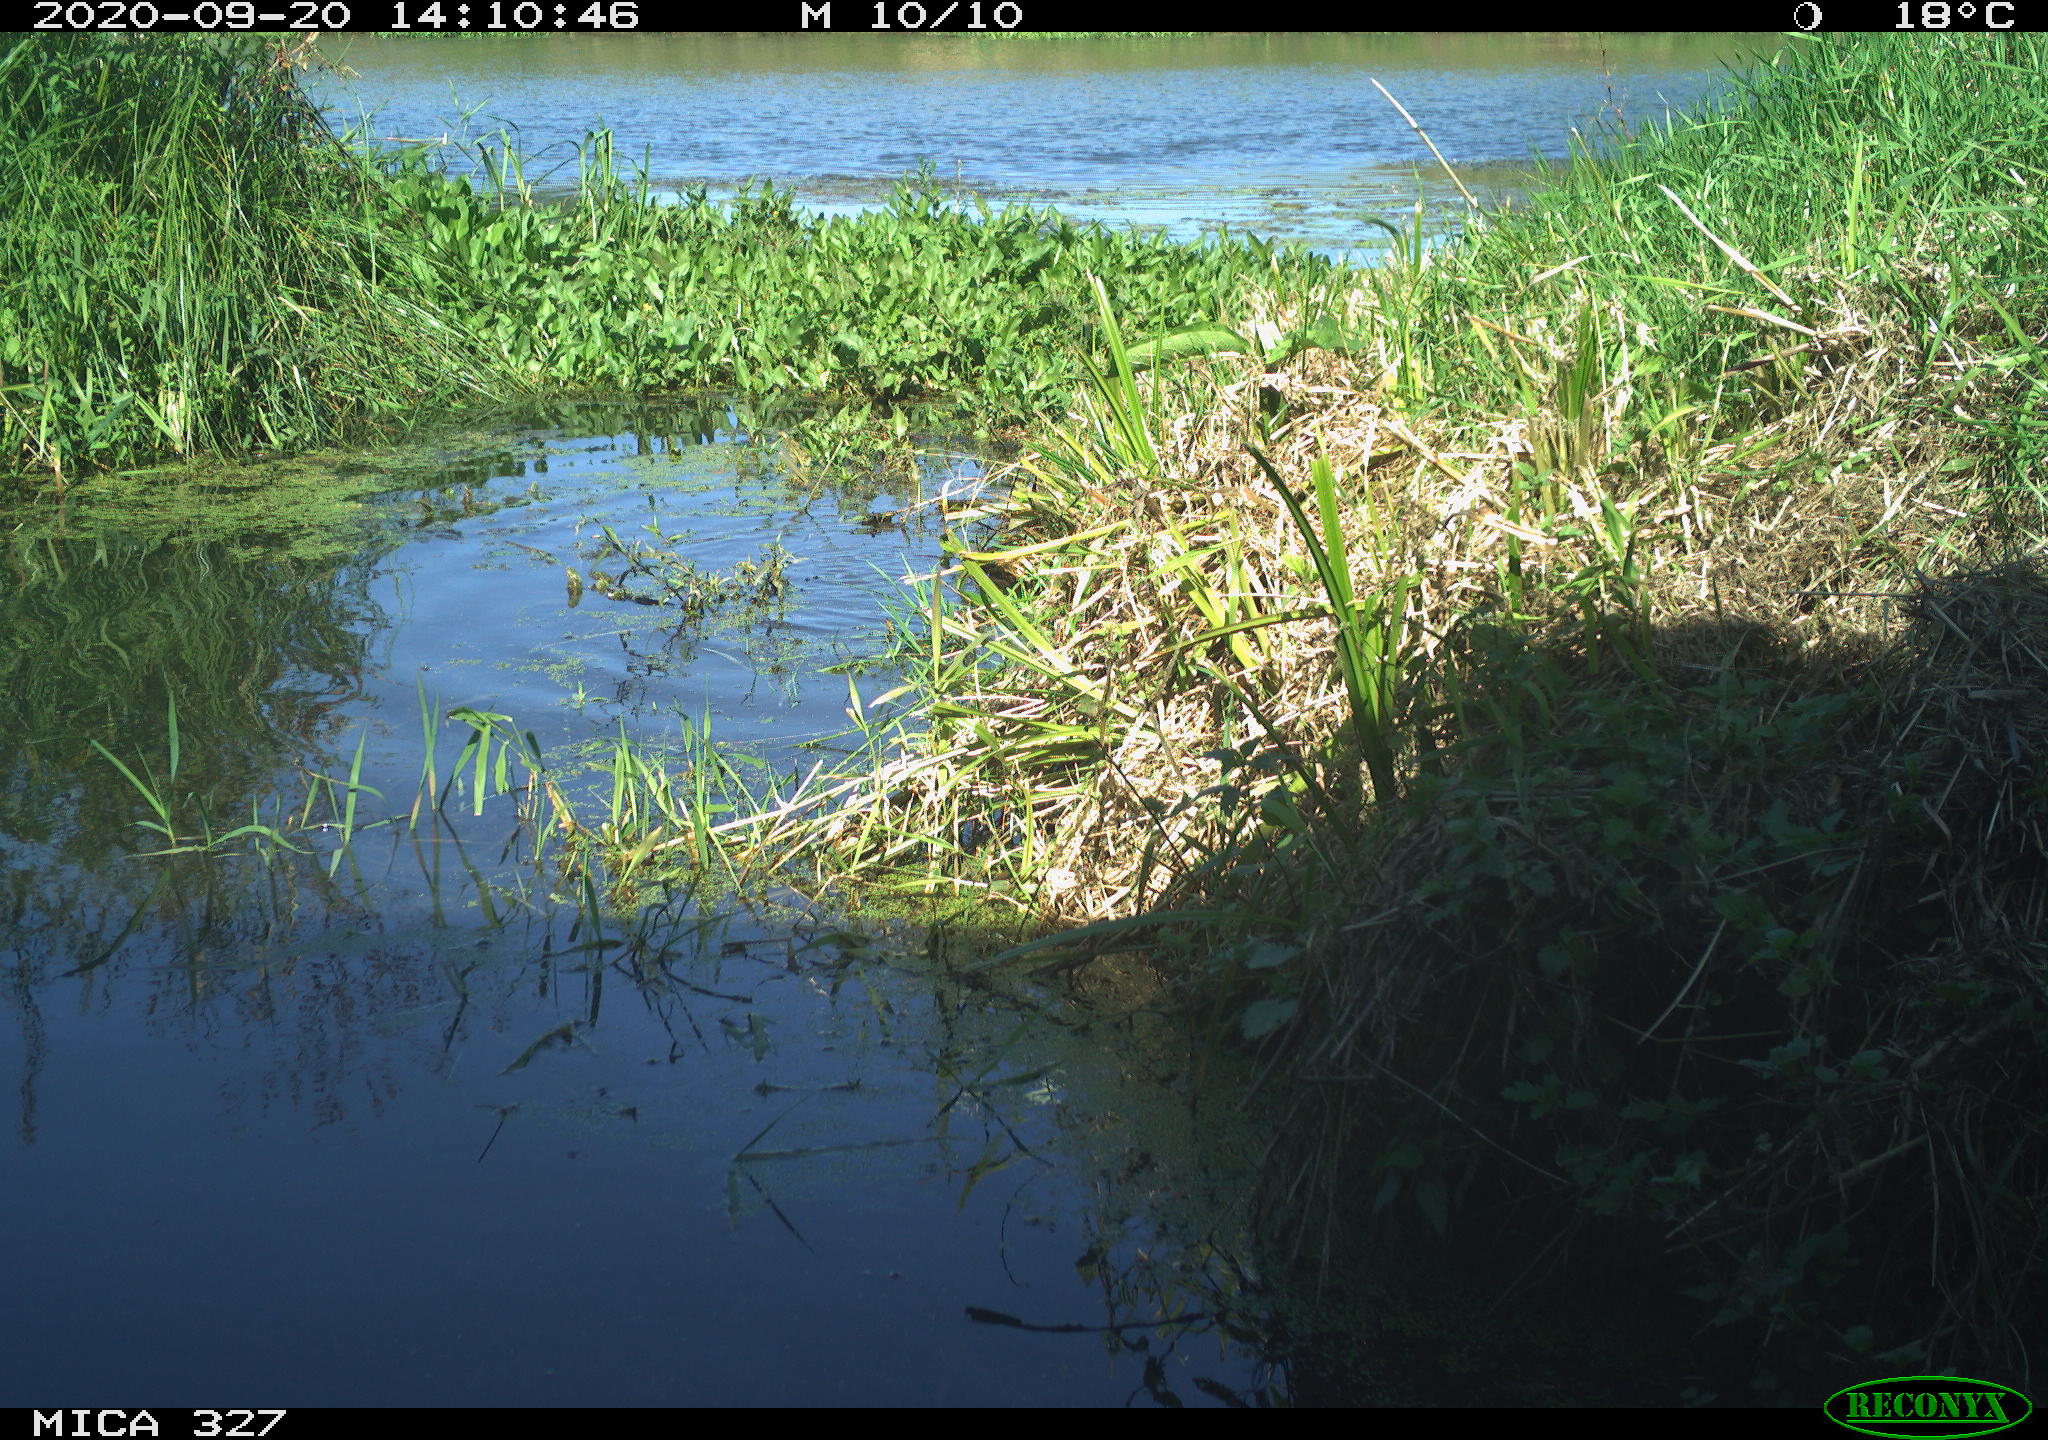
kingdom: Animalia
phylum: Chordata
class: Mammalia
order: Carnivora
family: Canidae
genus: Canis
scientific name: Canis lupus
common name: Gray wolf
